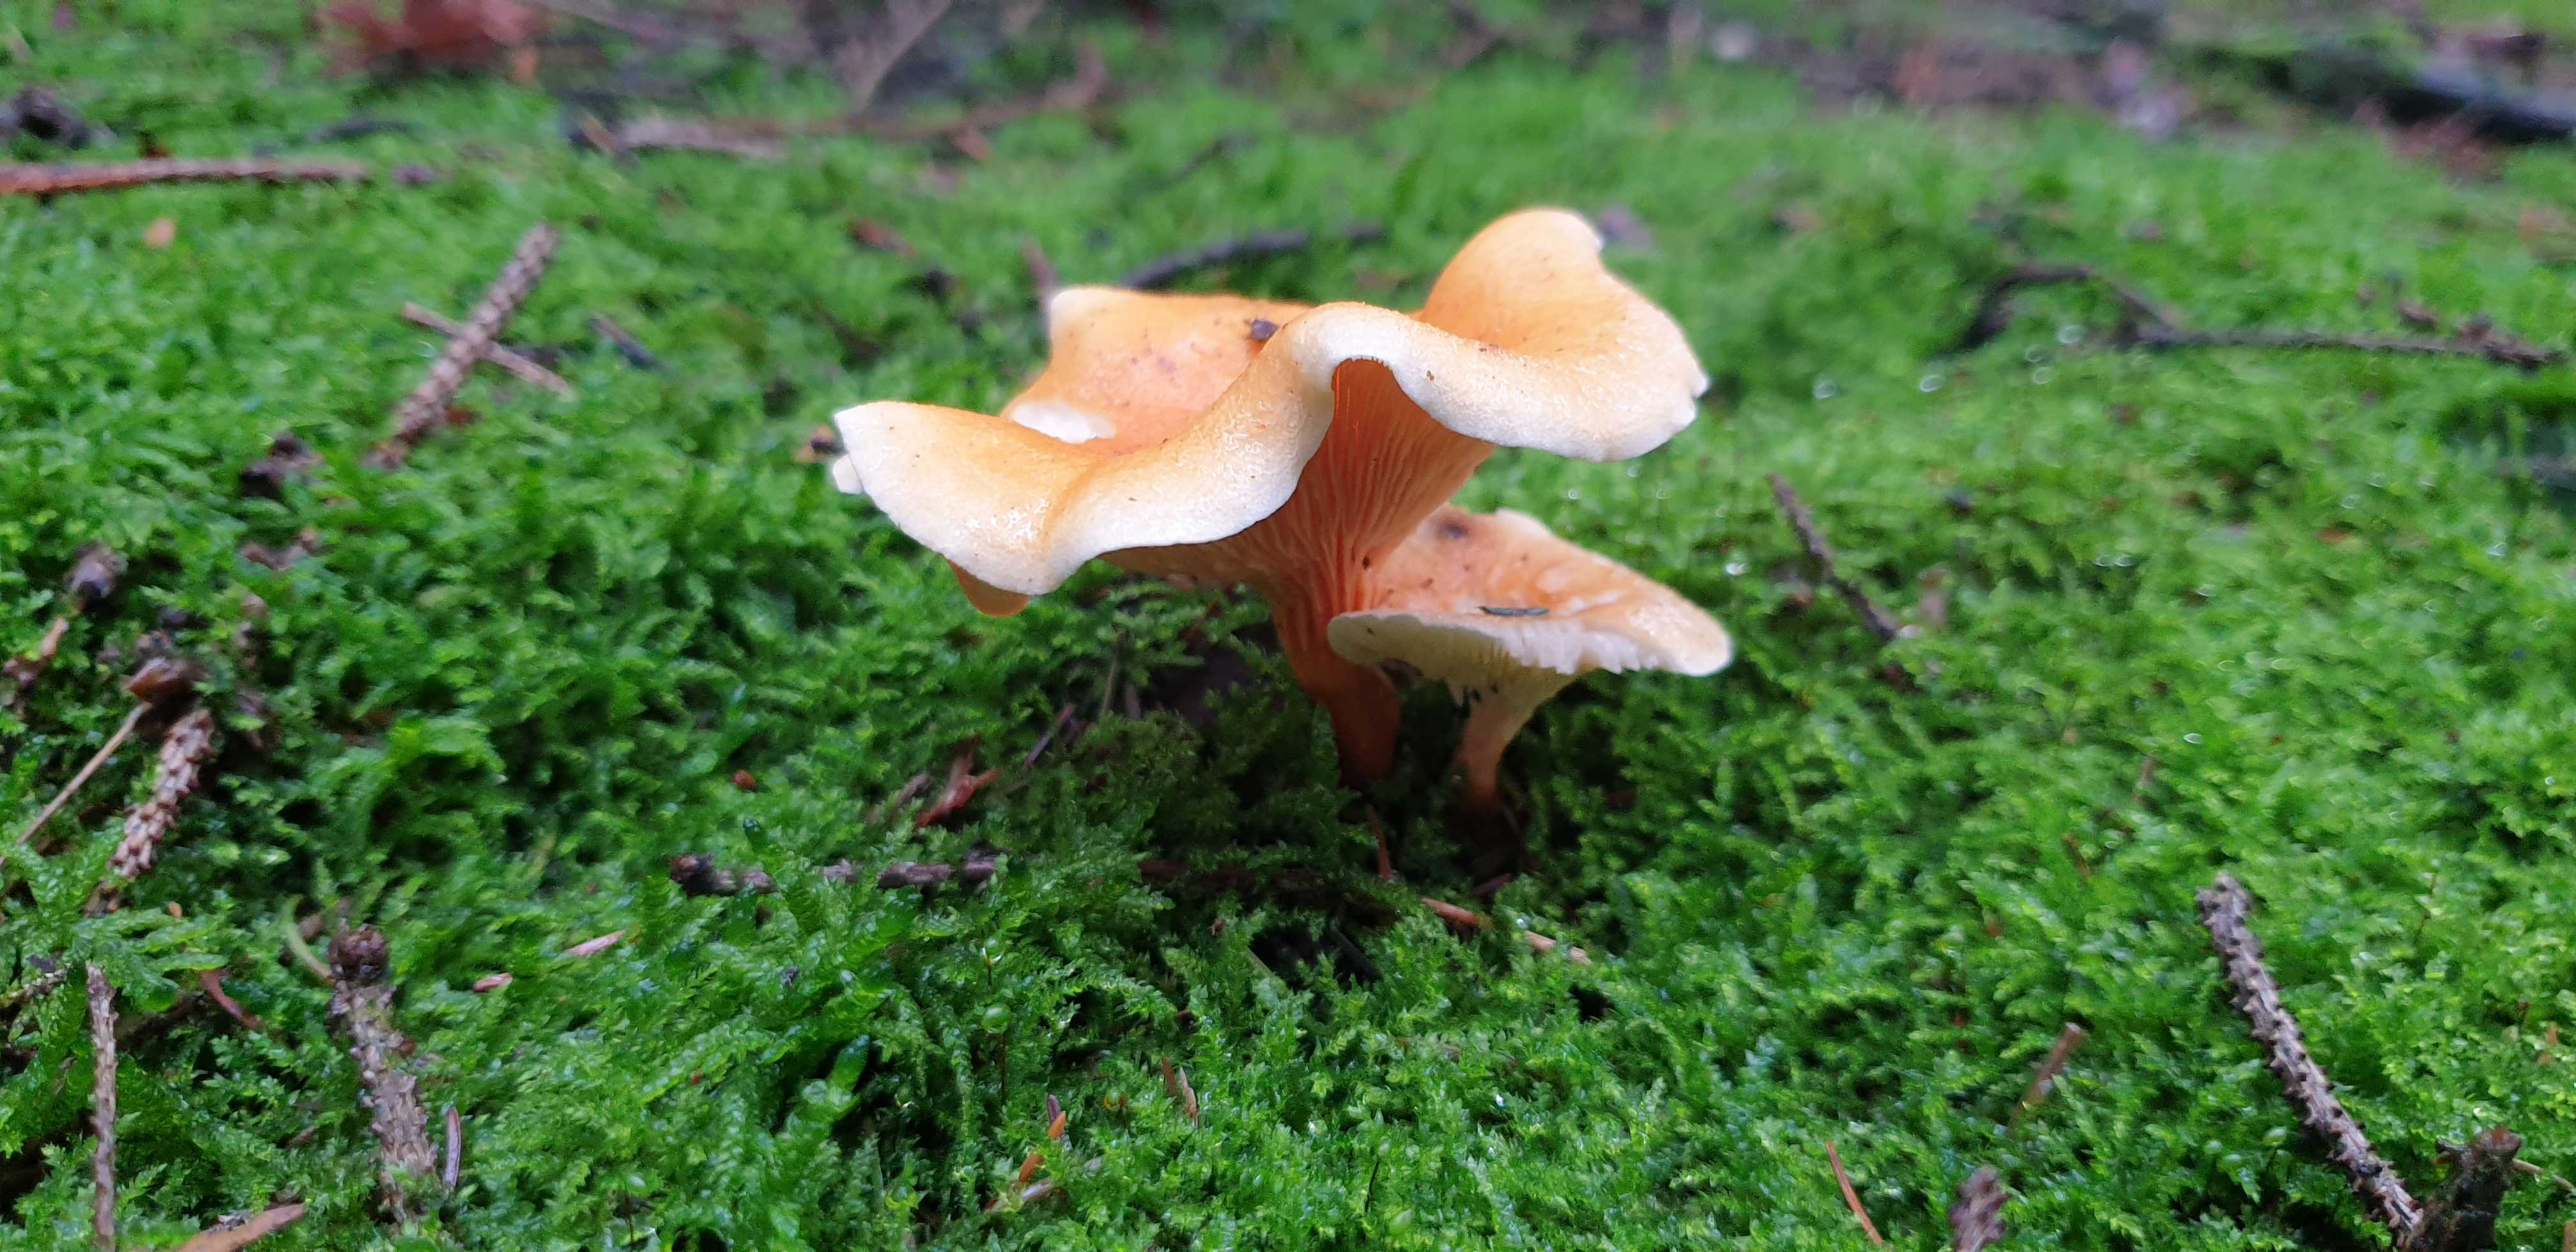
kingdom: Fungi
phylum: Basidiomycota
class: Agaricomycetes
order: Boletales
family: Hygrophoropsidaceae
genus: Hygrophoropsis
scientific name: Hygrophoropsis aurantiaca
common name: almindelig orangekantarel
